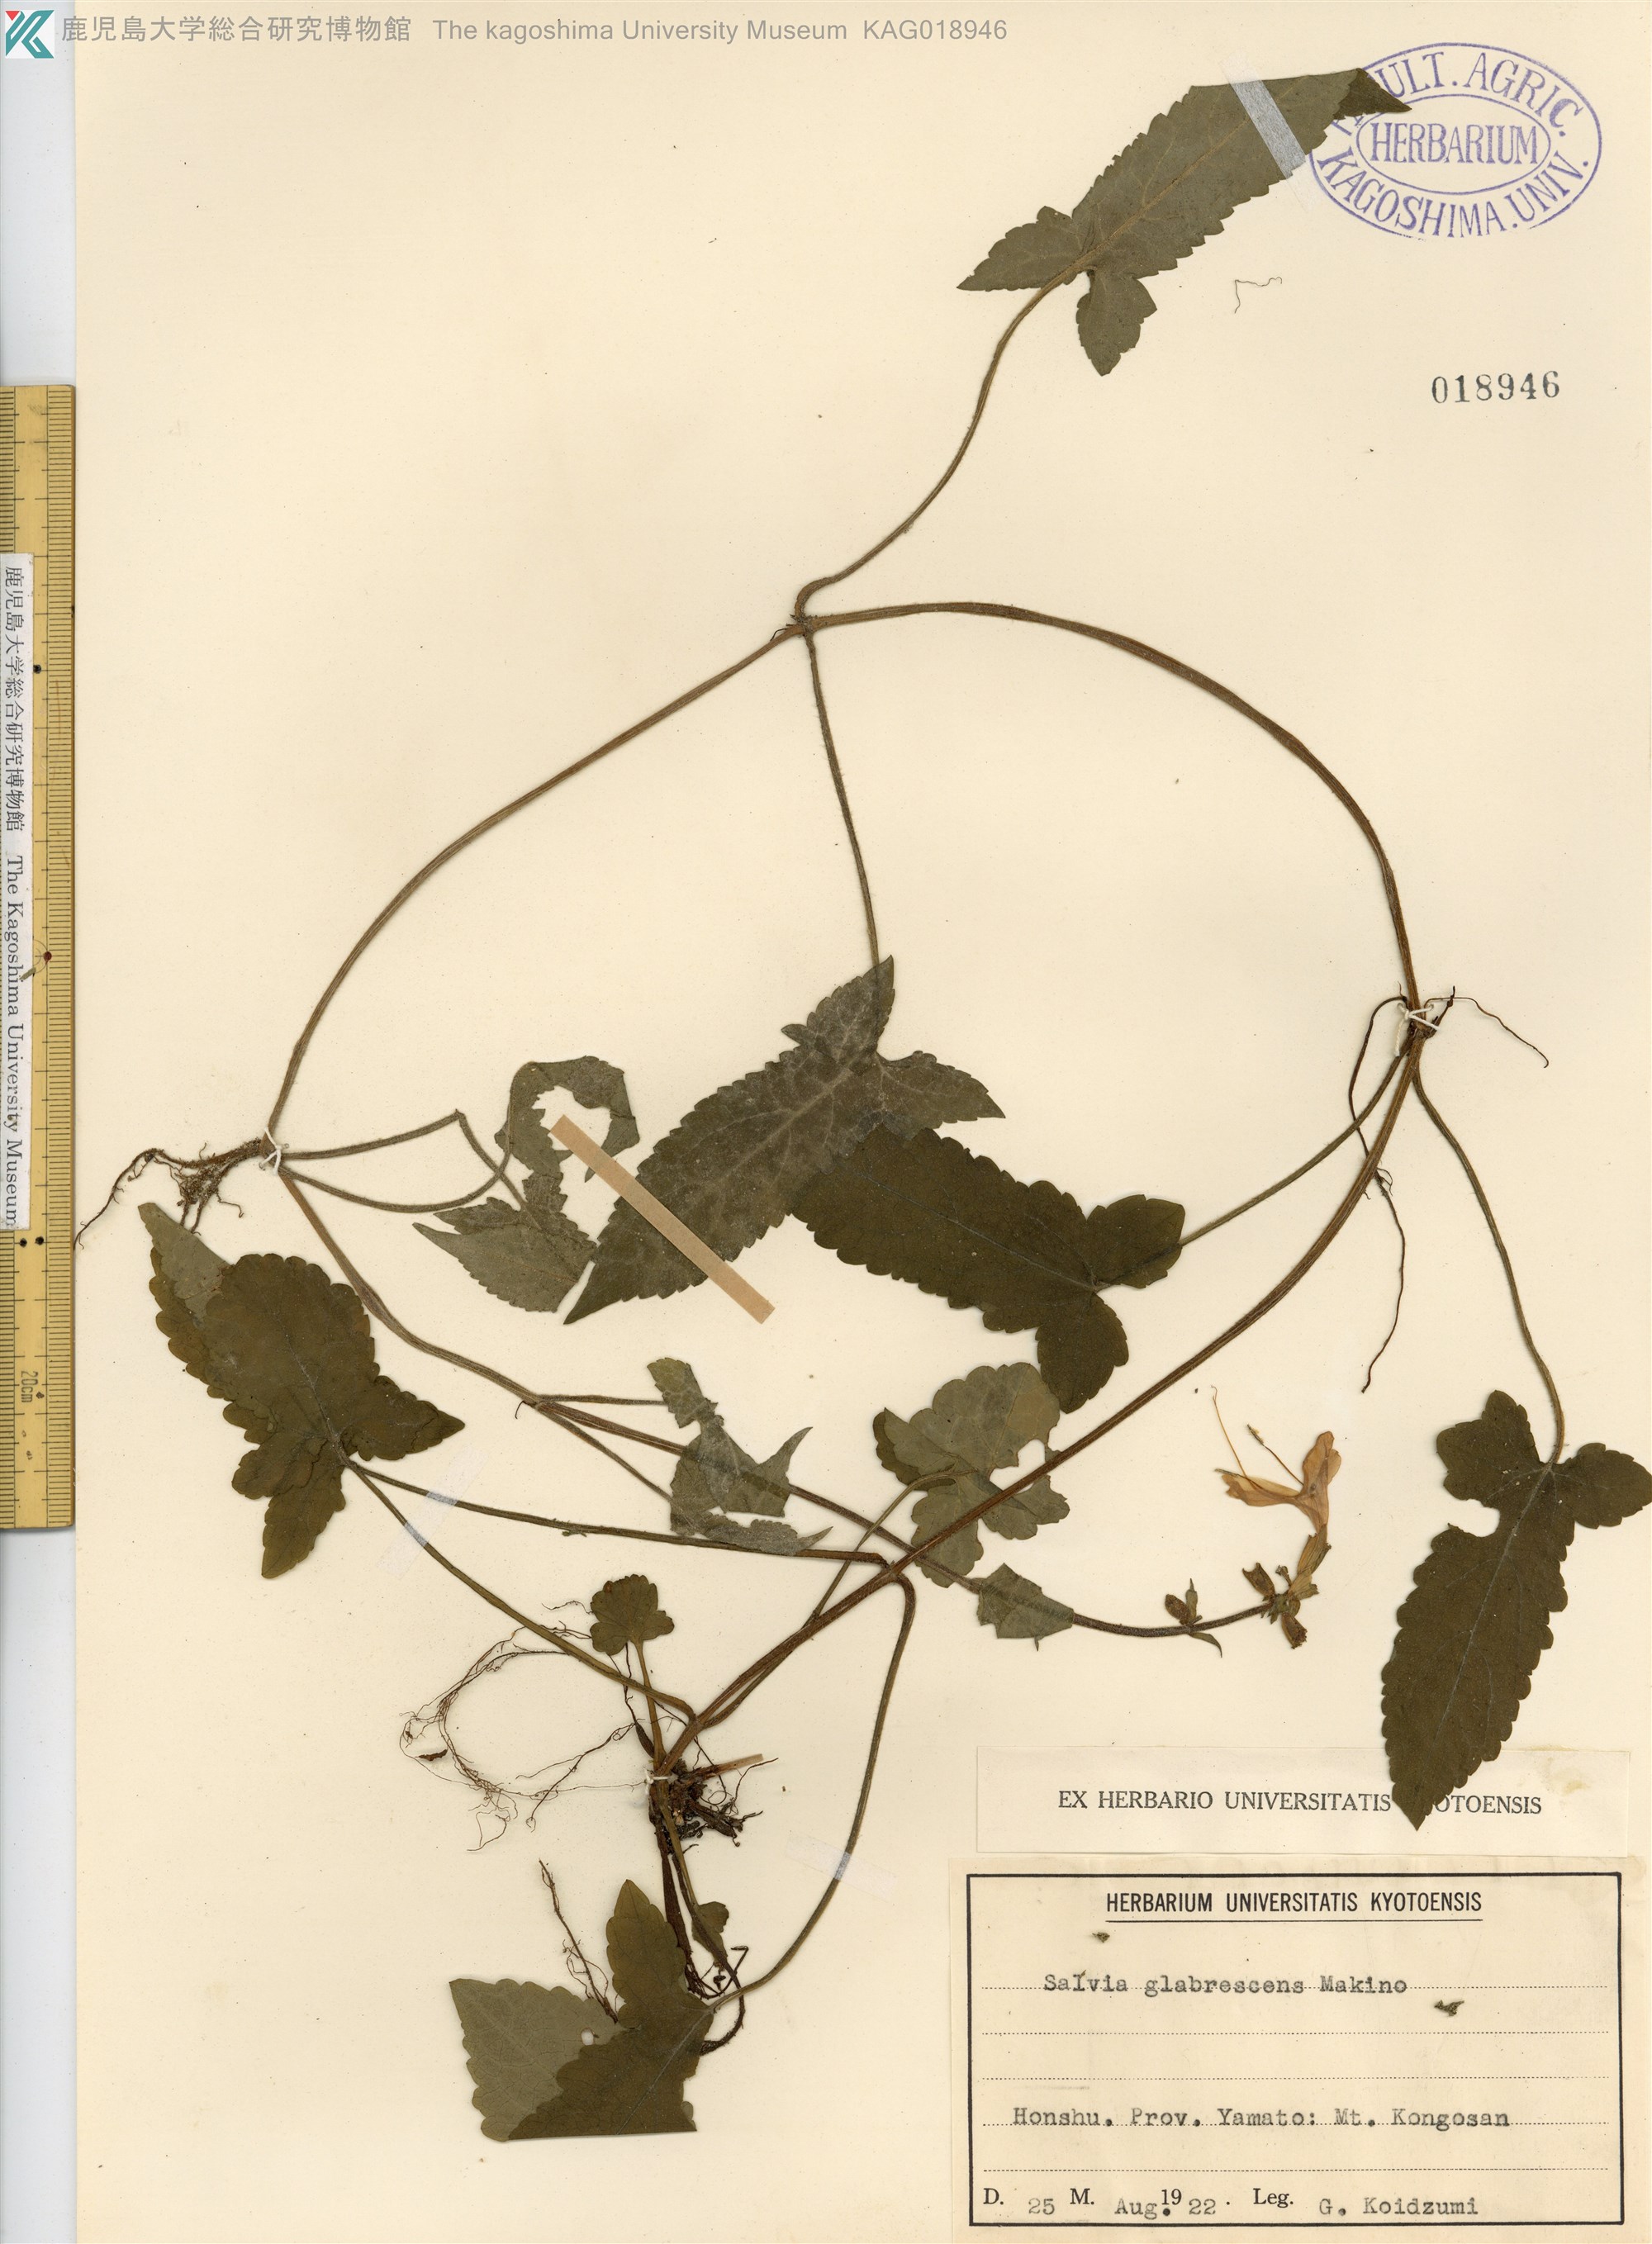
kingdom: Plantae
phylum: Tracheophyta
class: Magnoliopsida
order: Lamiales
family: Lamiaceae
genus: Salvia
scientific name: Salvia glabrescens
